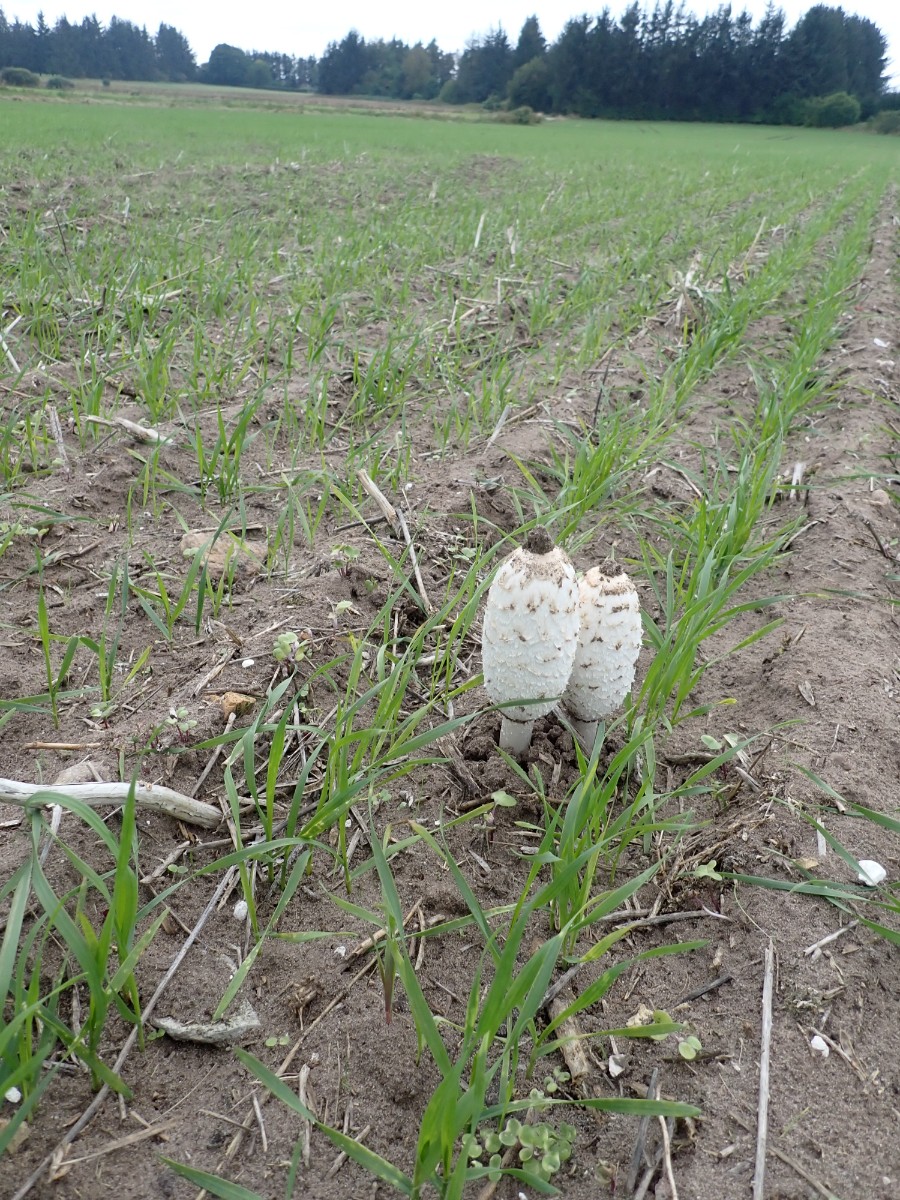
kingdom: Fungi
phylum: Basidiomycota
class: Agaricomycetes
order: Agaricales
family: Agaricaceae
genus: Coprinus
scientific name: Coprinus comatus
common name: stor parykhat
